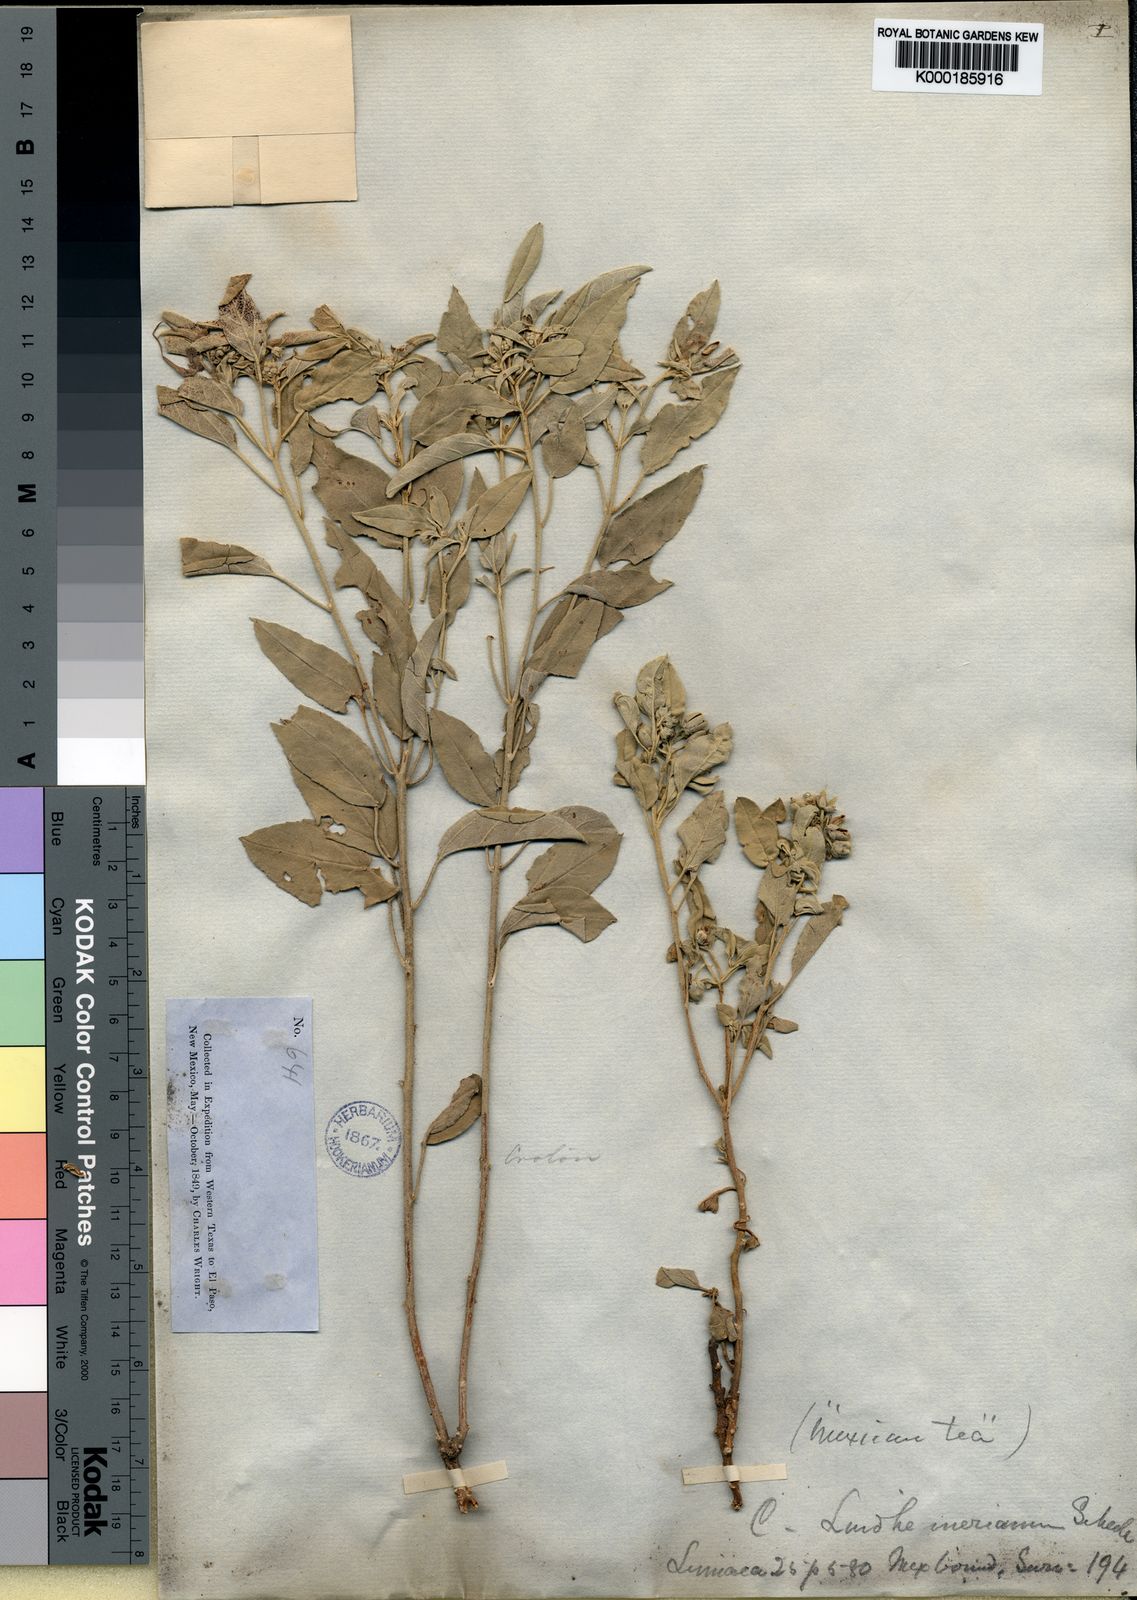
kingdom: Plantae
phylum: Tracheophyta
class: Magnoliopsida
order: Malpighiales
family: Euphorbiaceae
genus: Croton
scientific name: Croton lindheimerianus
